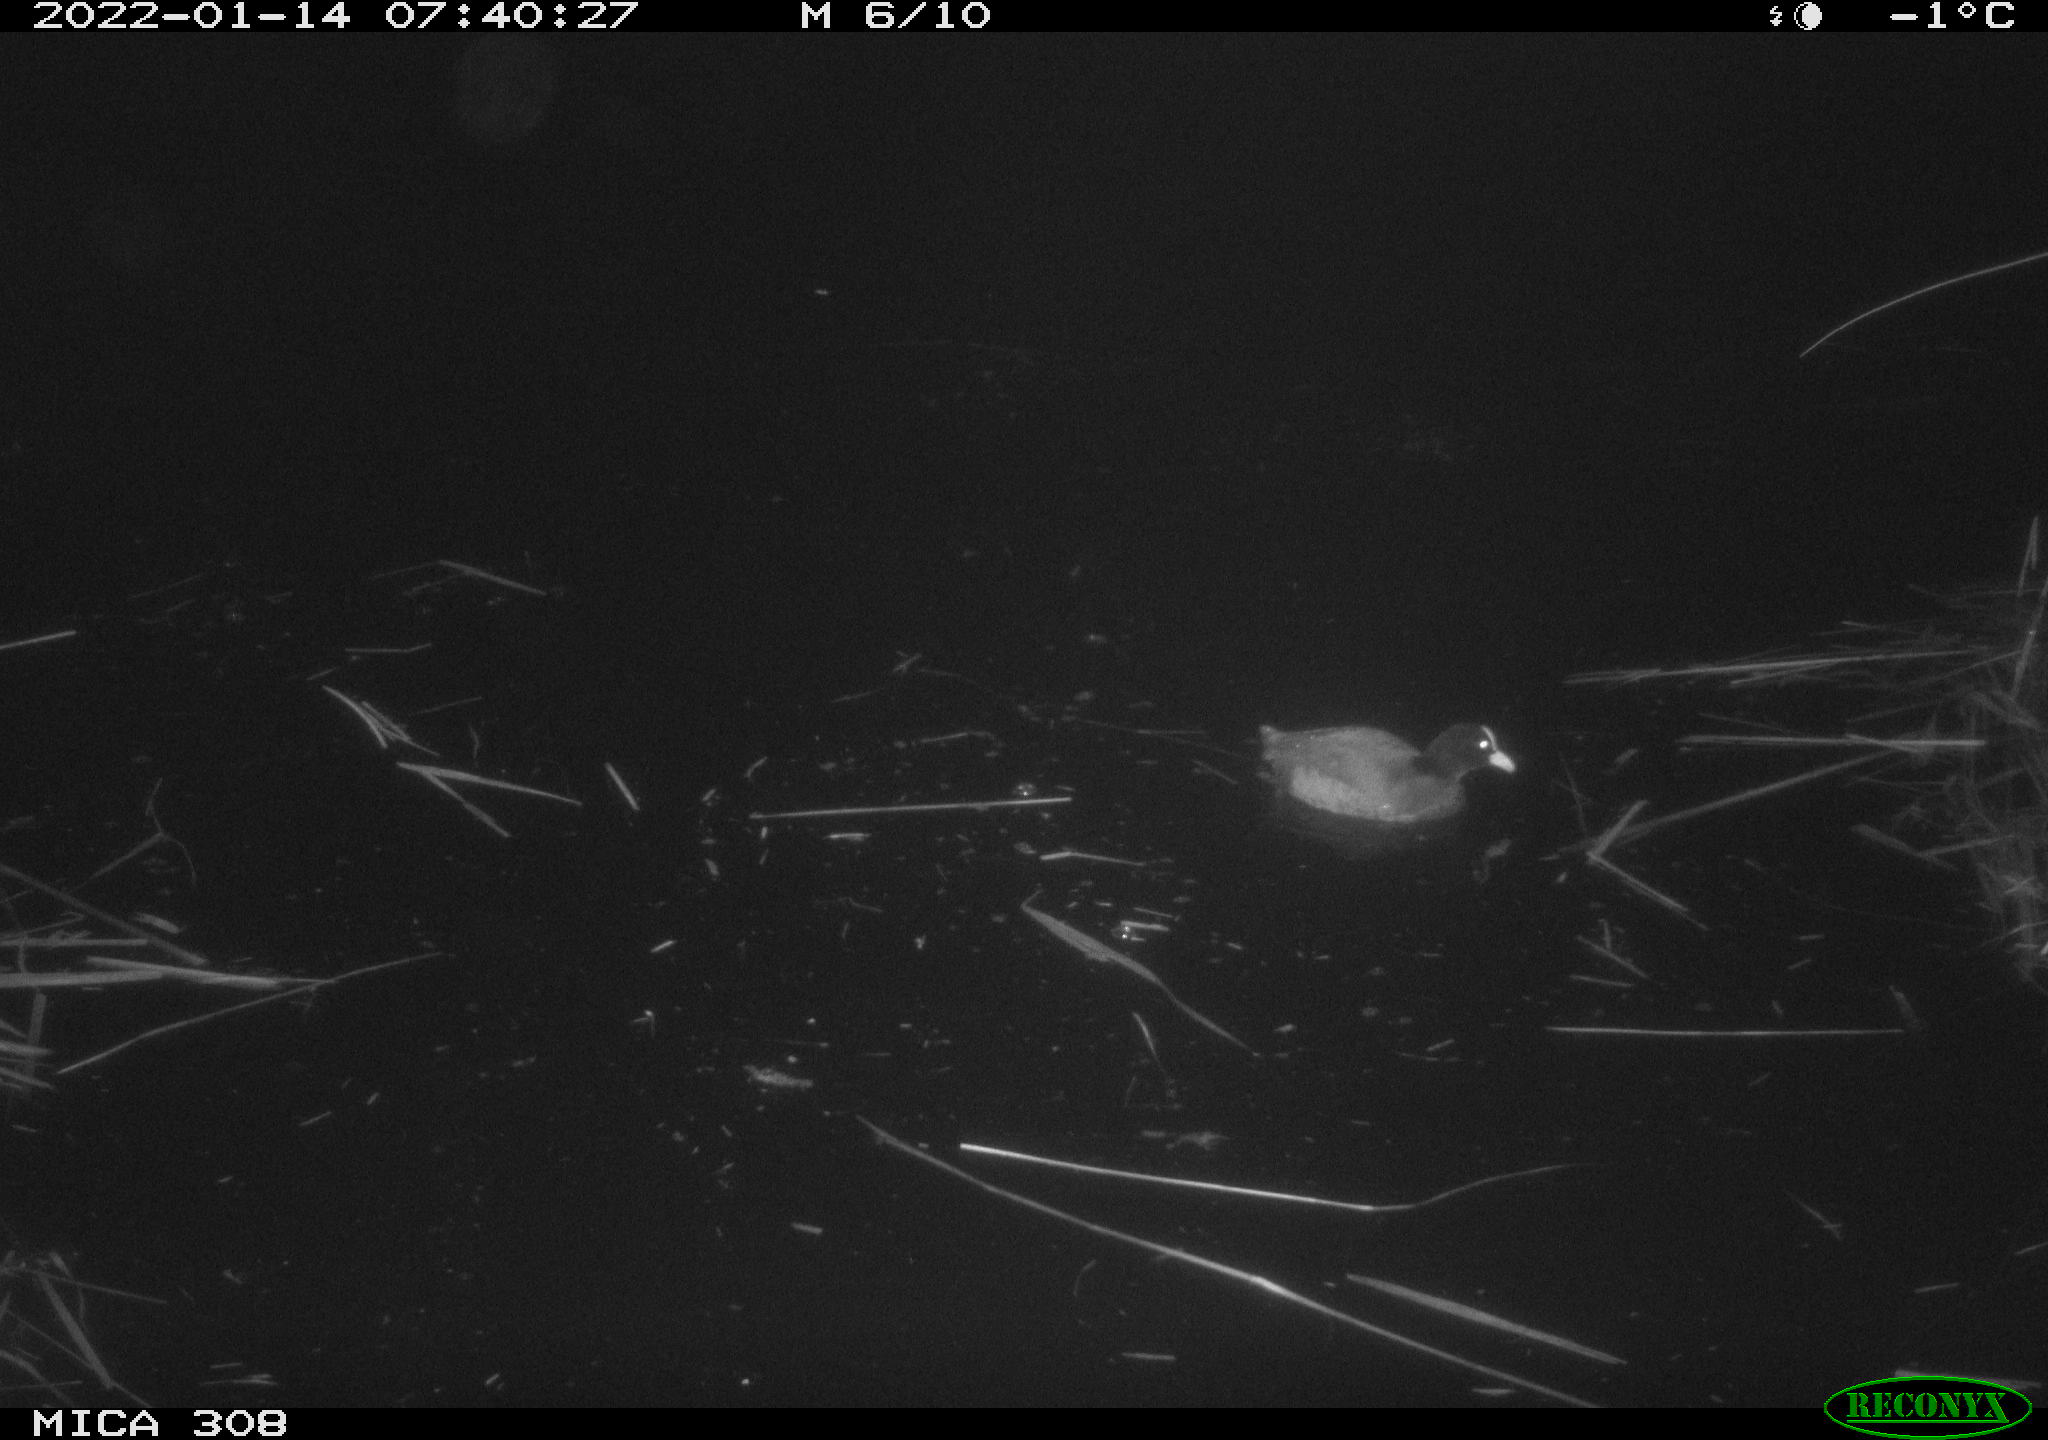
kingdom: Animalia
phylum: Chordata
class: Aves
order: Gruiformes
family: Rallidae
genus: Fulica
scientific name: Fulica atra
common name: Eurasian coot
